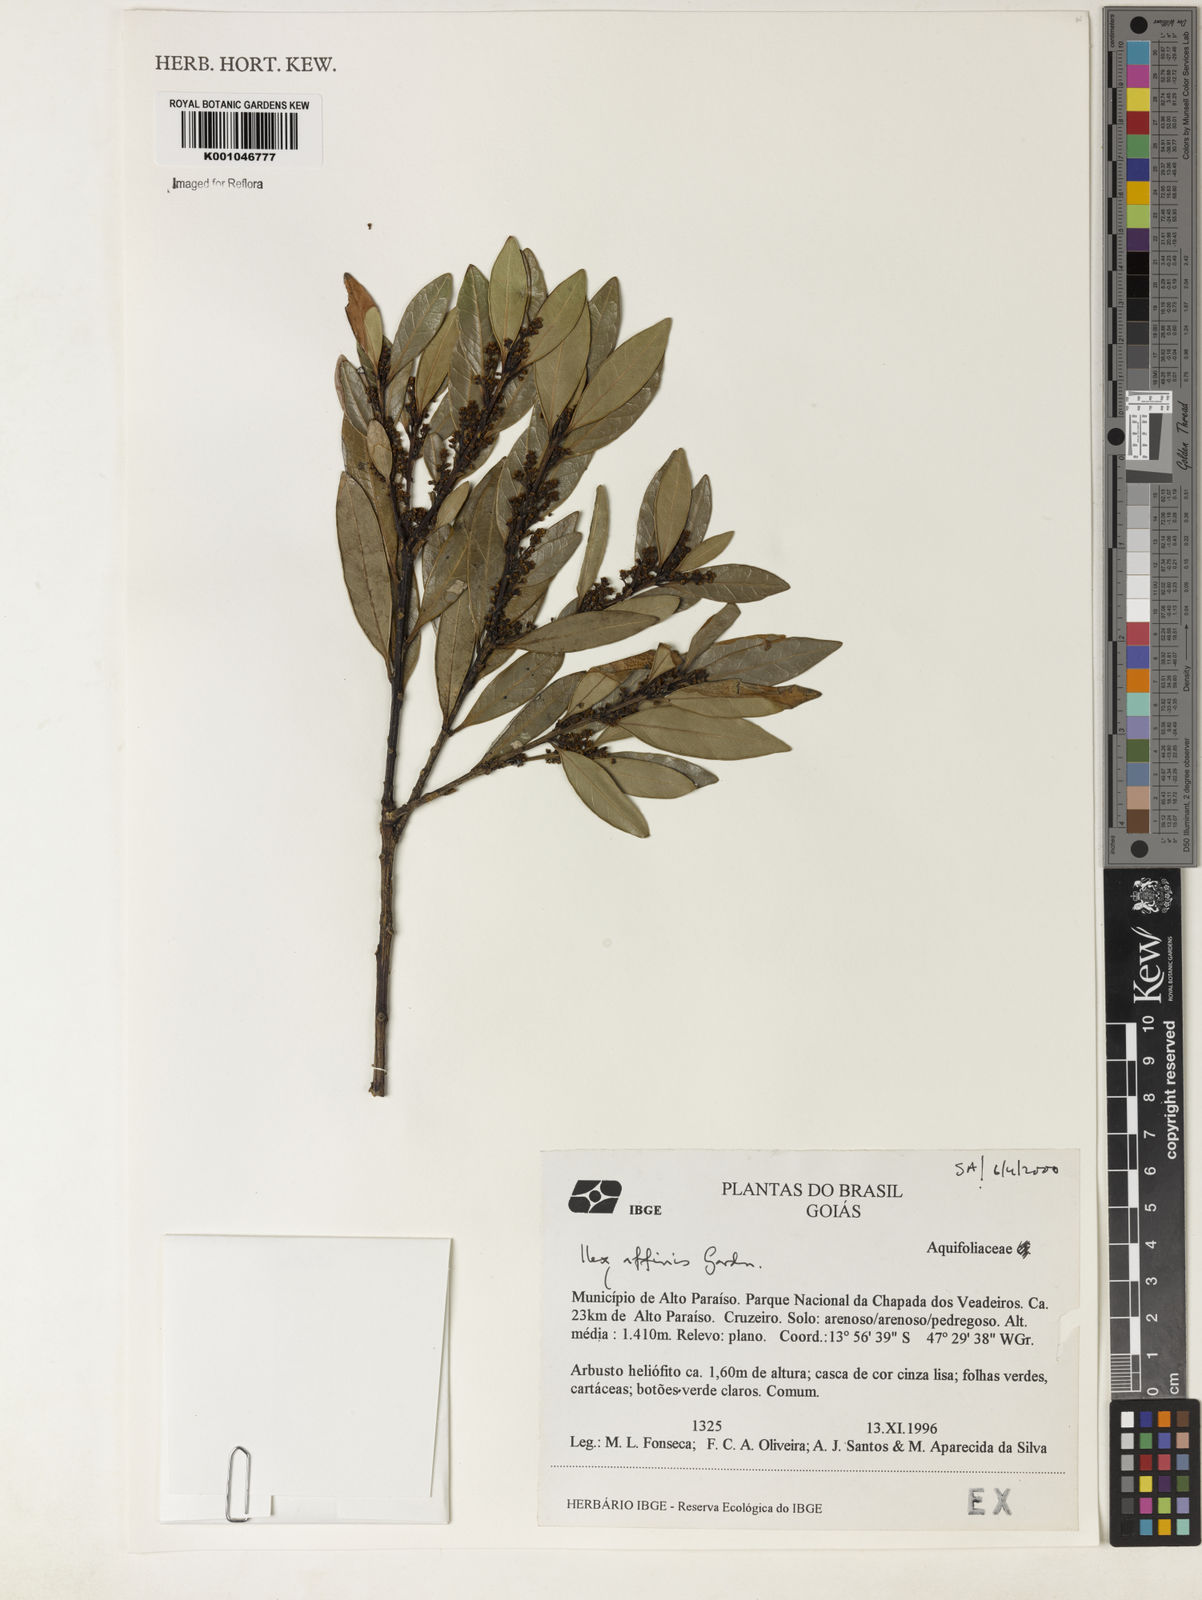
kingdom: Plantae
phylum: Tracheophyta
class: Magnoliopsida
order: Aquifoliales
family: Aquifoliaceae
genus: Ilex
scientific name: Ilex affinis
